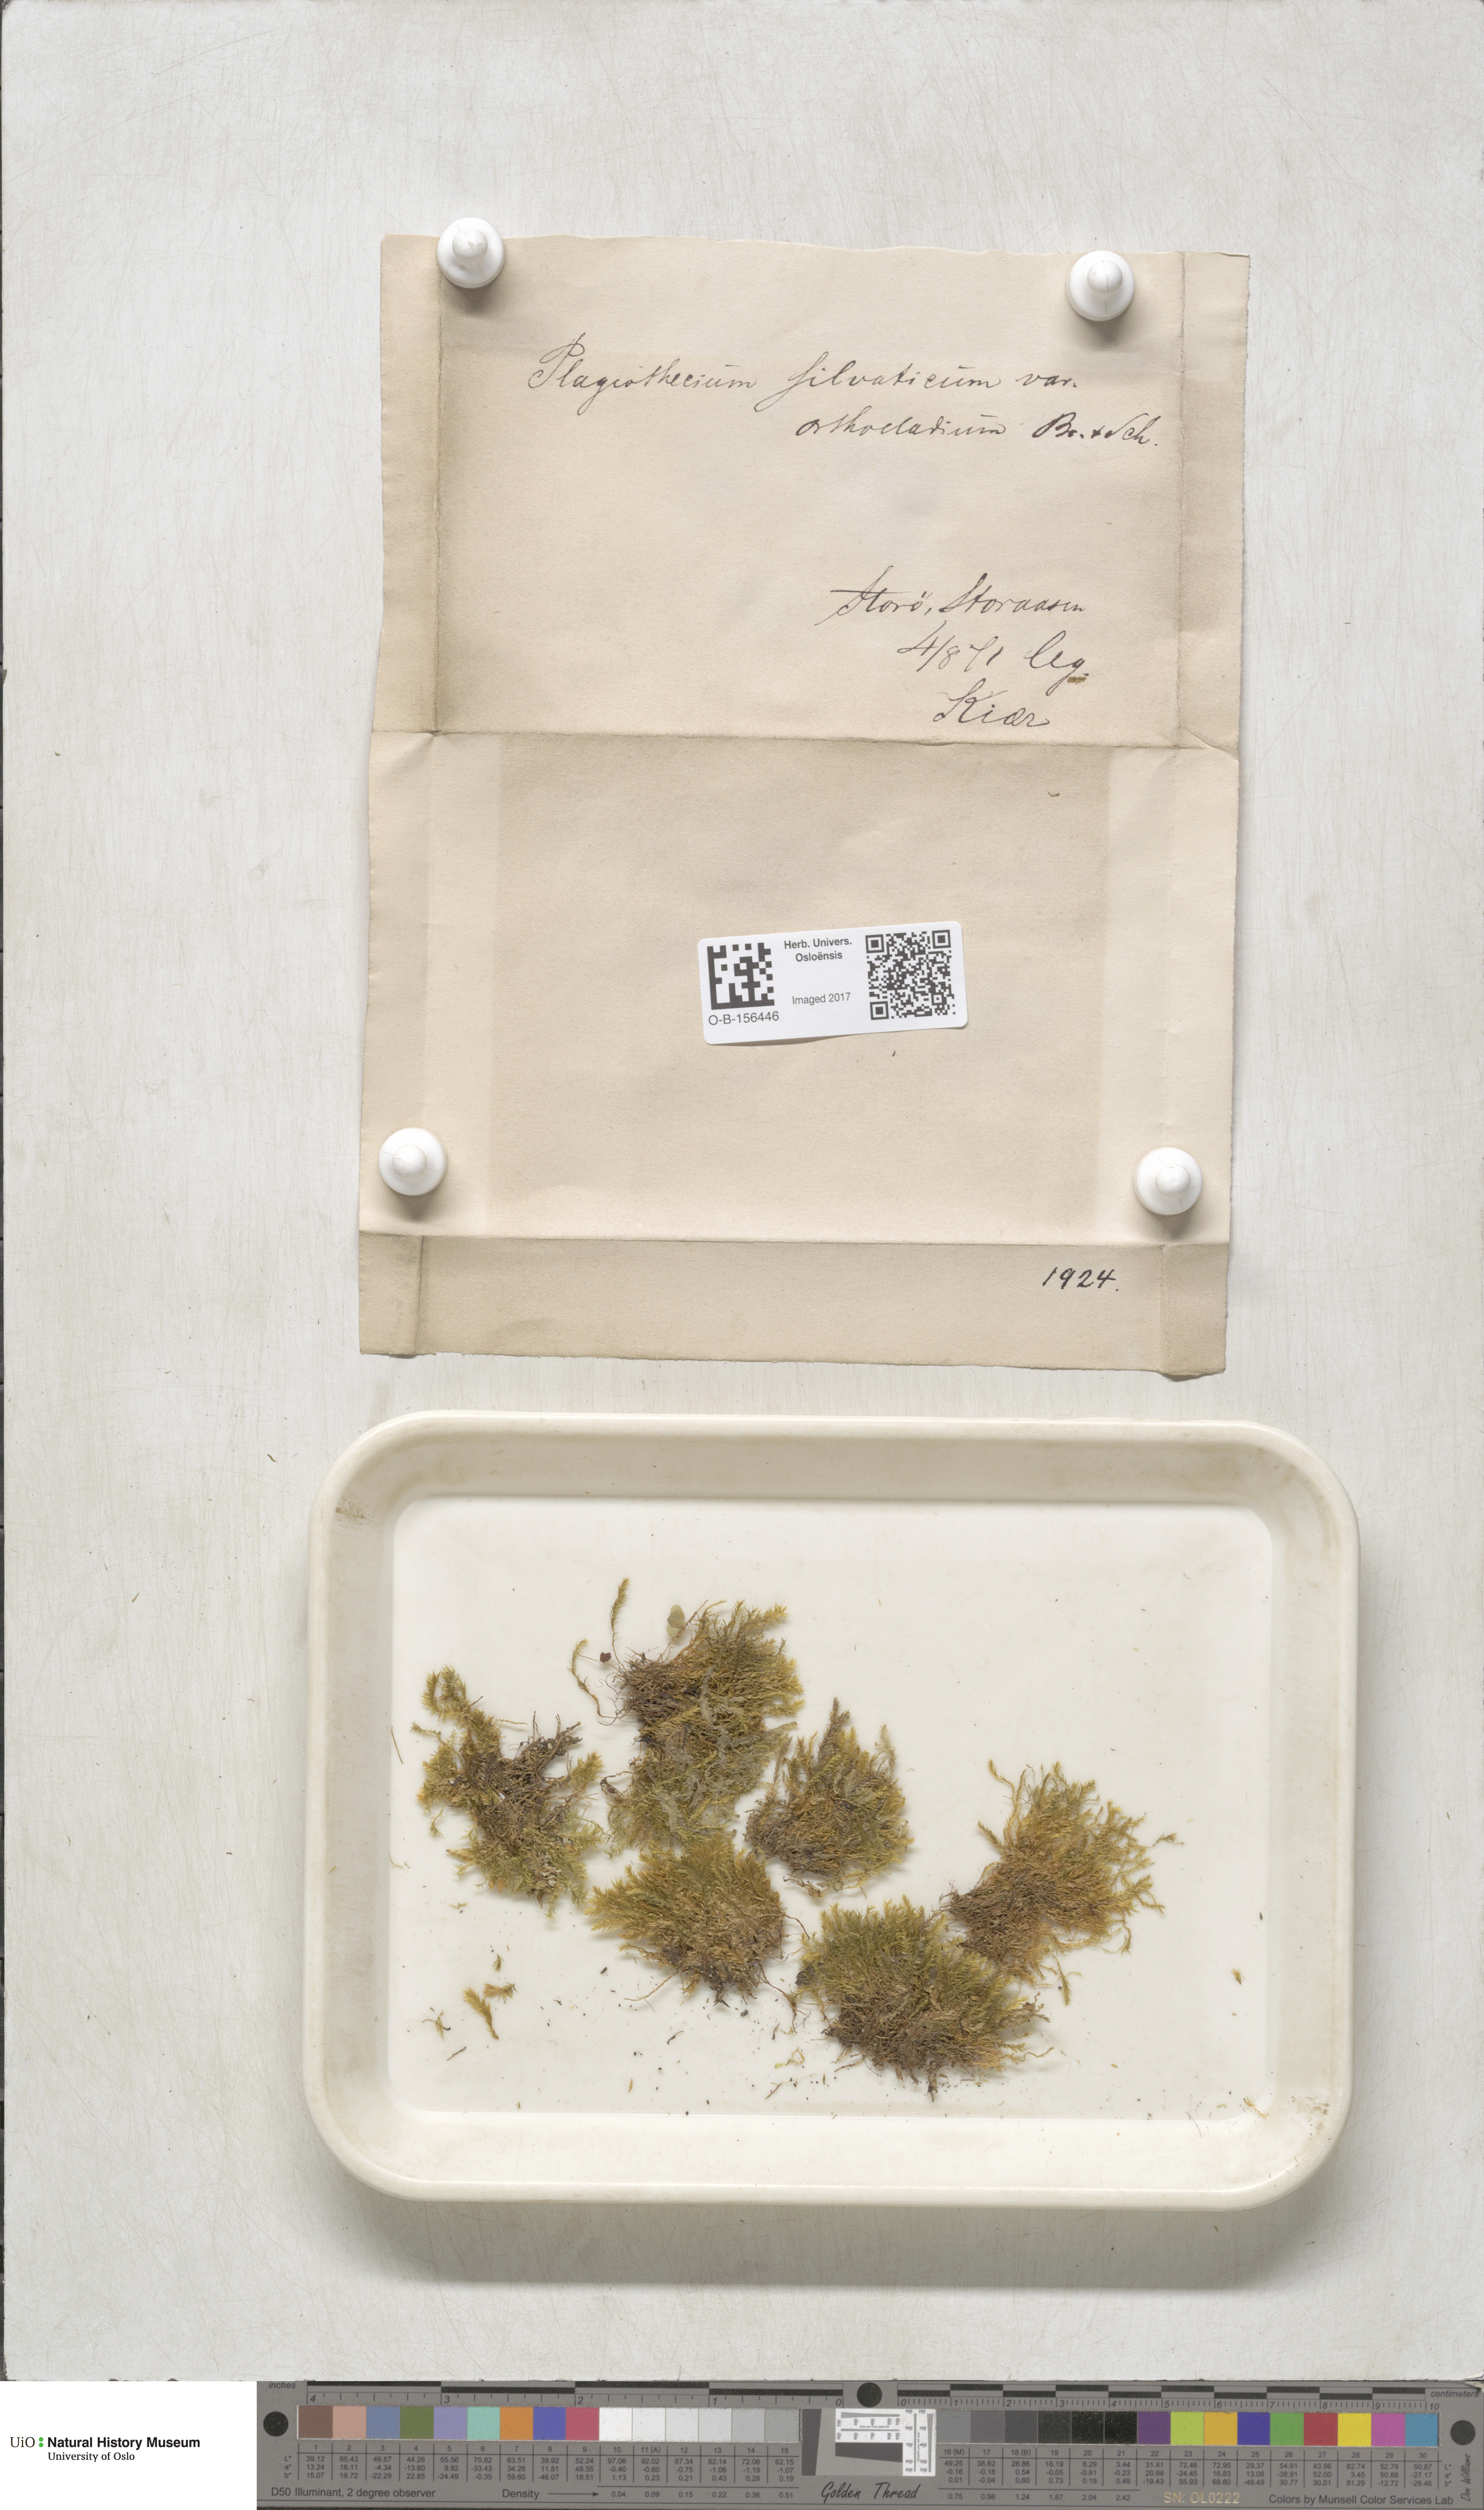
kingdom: Plantae
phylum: Bryophyta
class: Bryopsida
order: Hypnales
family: Plagiotheciaceae
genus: Plagiothecium
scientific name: Plagiothecium nemorale
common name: Woodsy silk-moss
